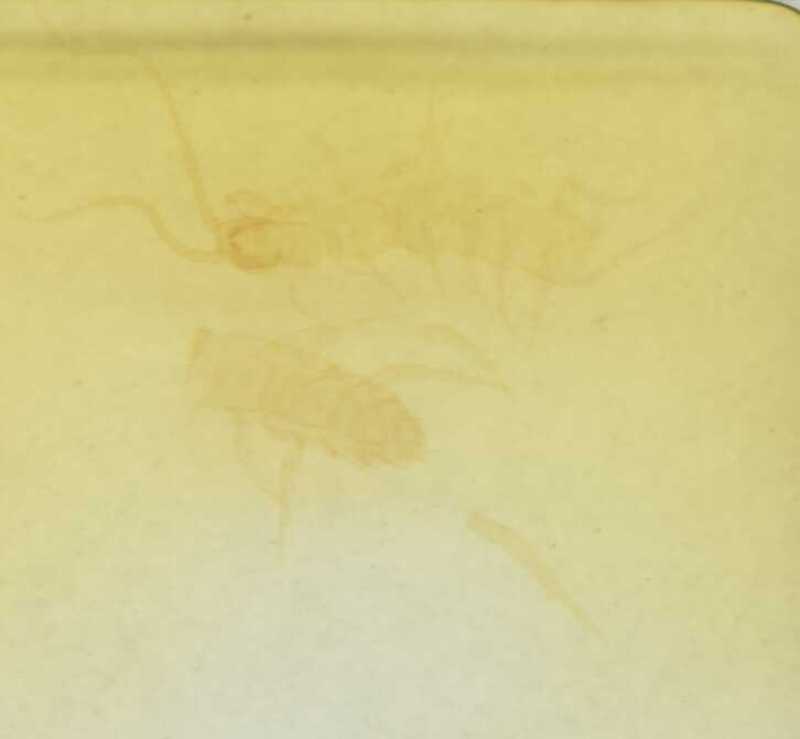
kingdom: Animalia
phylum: Arthropoda
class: Chilopoda
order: Lithobiomorpha
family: Lithobiidae
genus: Lithobius
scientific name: Lithobius cassinensis
